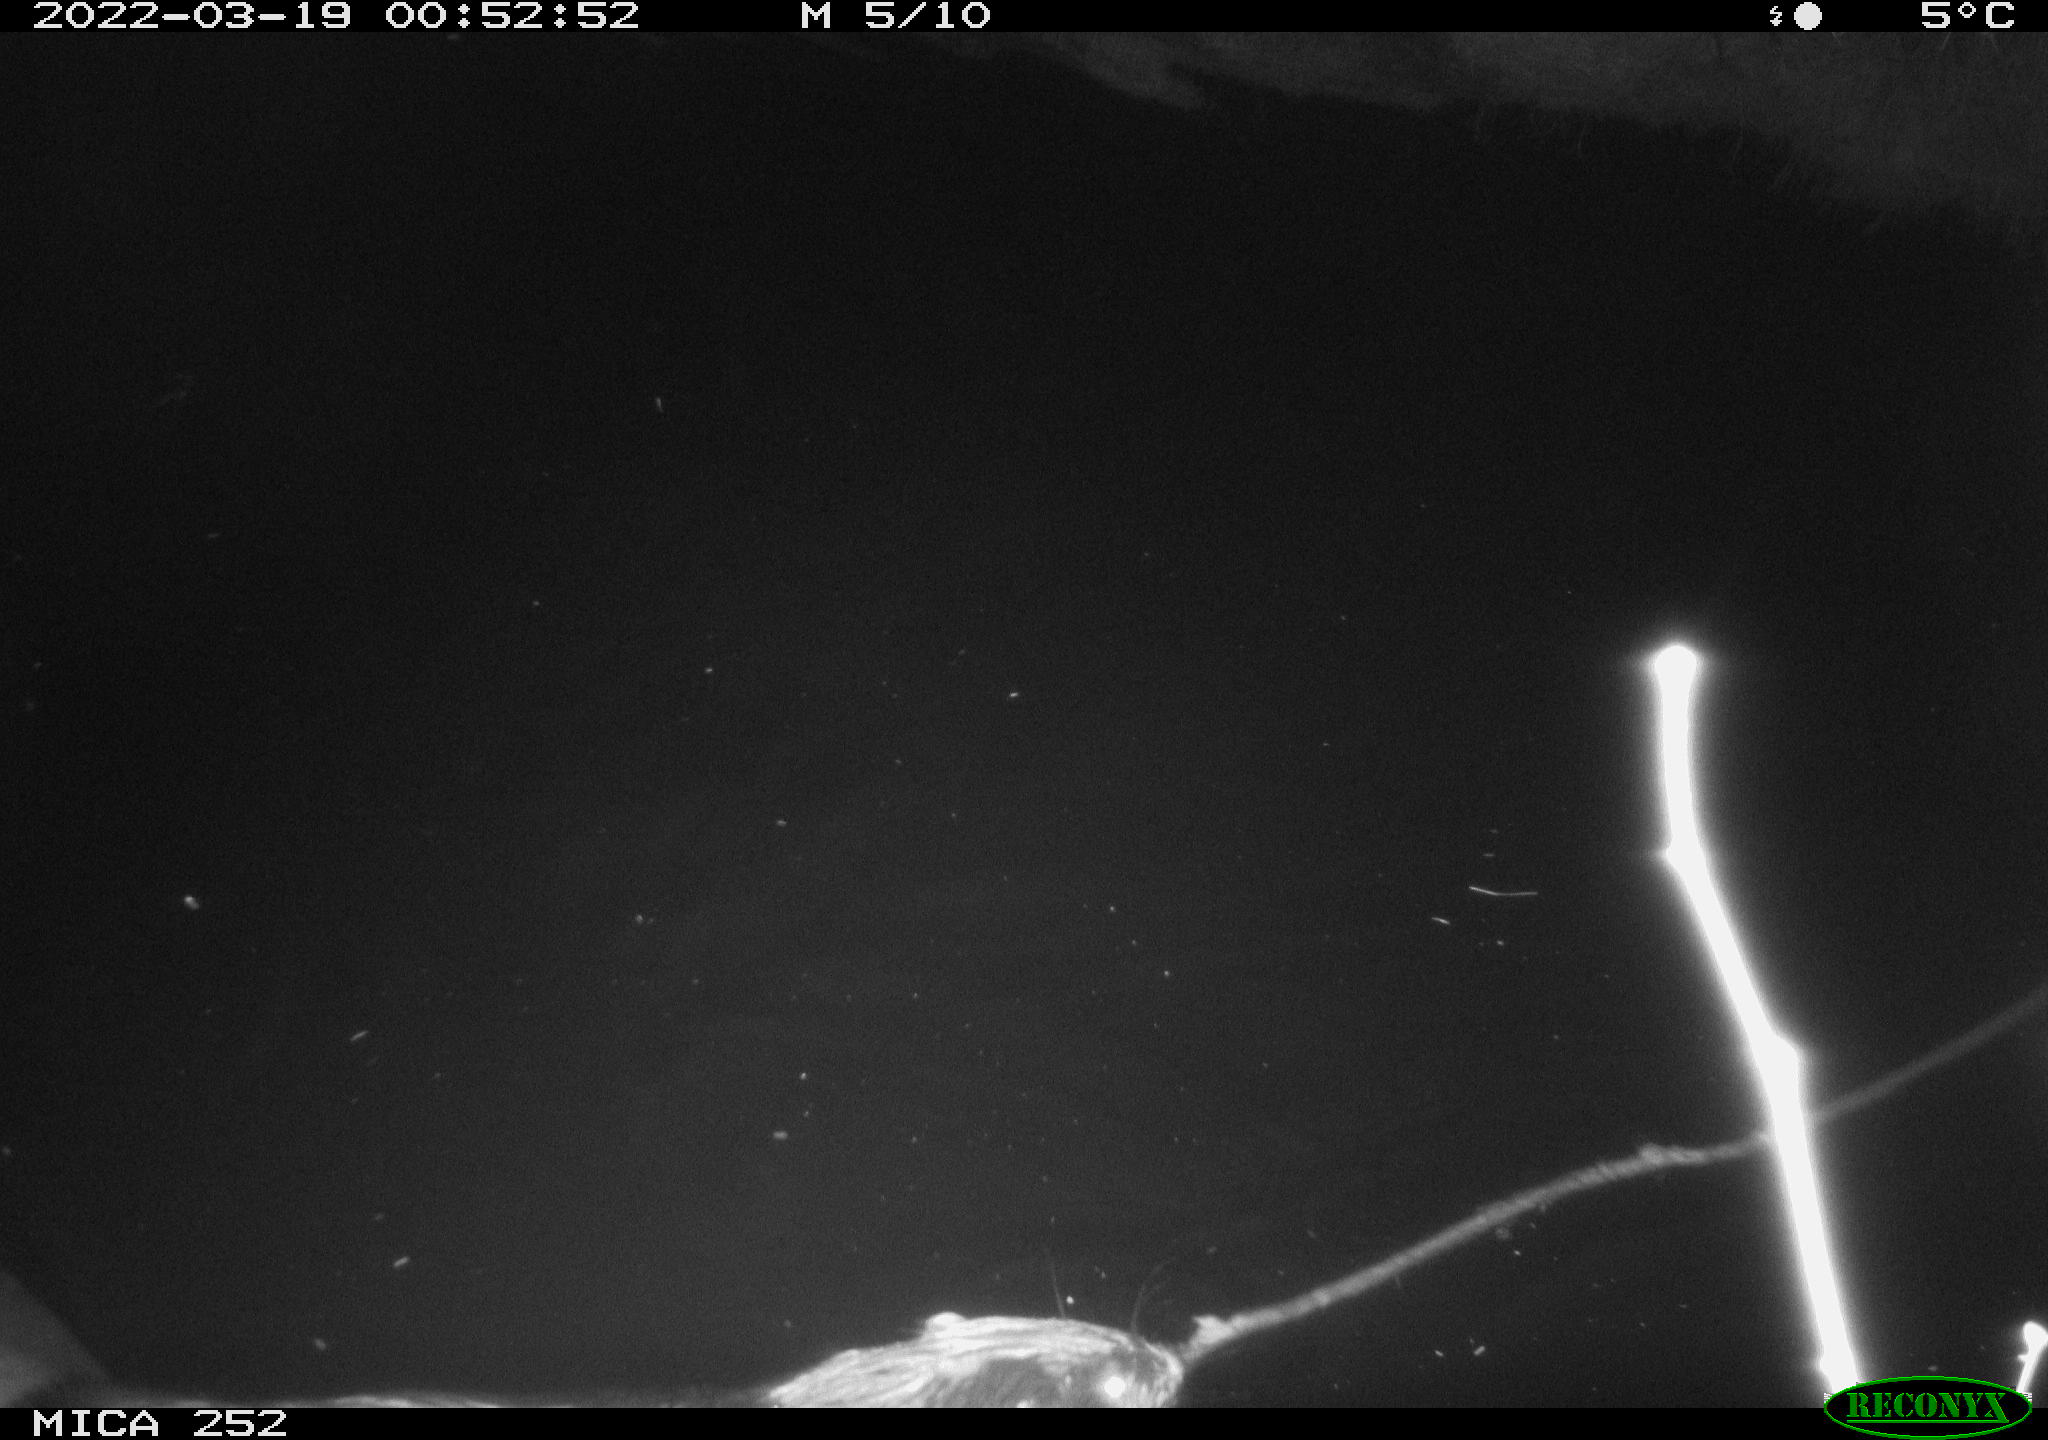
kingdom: Animalia
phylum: Chordata
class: Mammalia
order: Rodentia
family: Castoridae
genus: Castor
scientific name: Castor fiber
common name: Eurasian beaver
